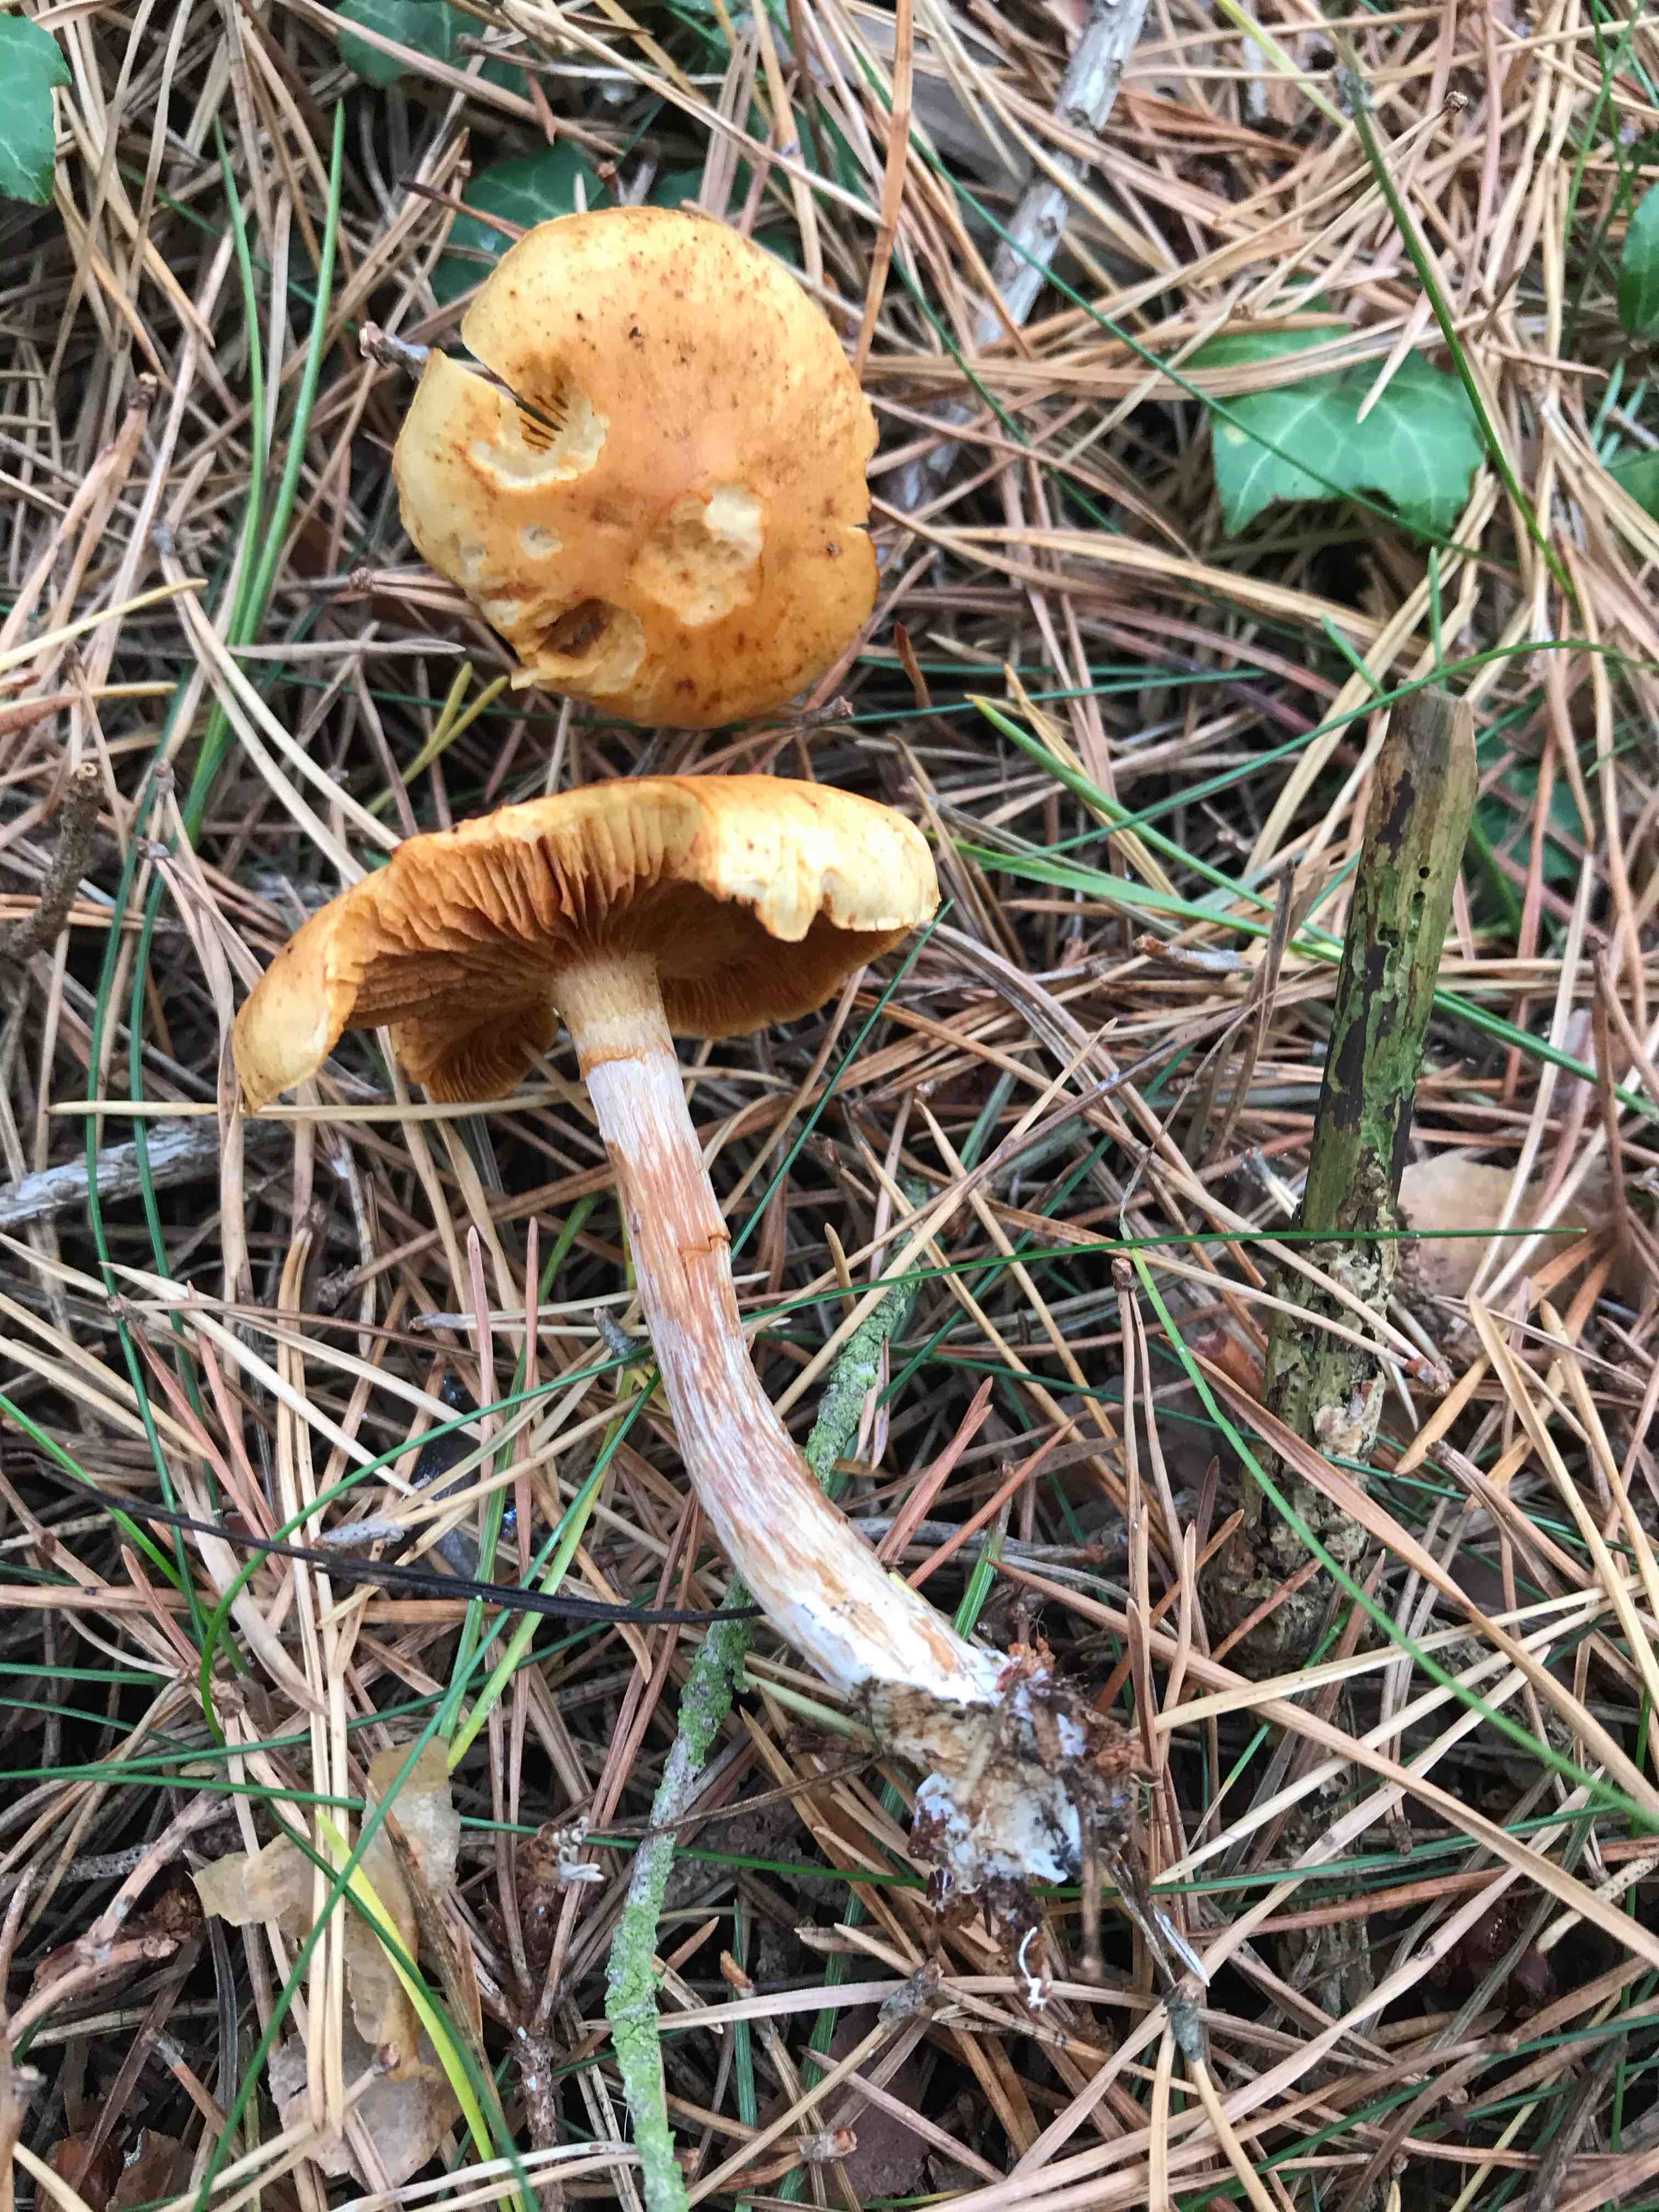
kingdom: Fungi
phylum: Basidiomycota
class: Agaricomycetes
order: Agaricales
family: Hymenogastraceae
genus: Gymnopilus
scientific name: Gymnopilus penetrans
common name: plettet flammehat
